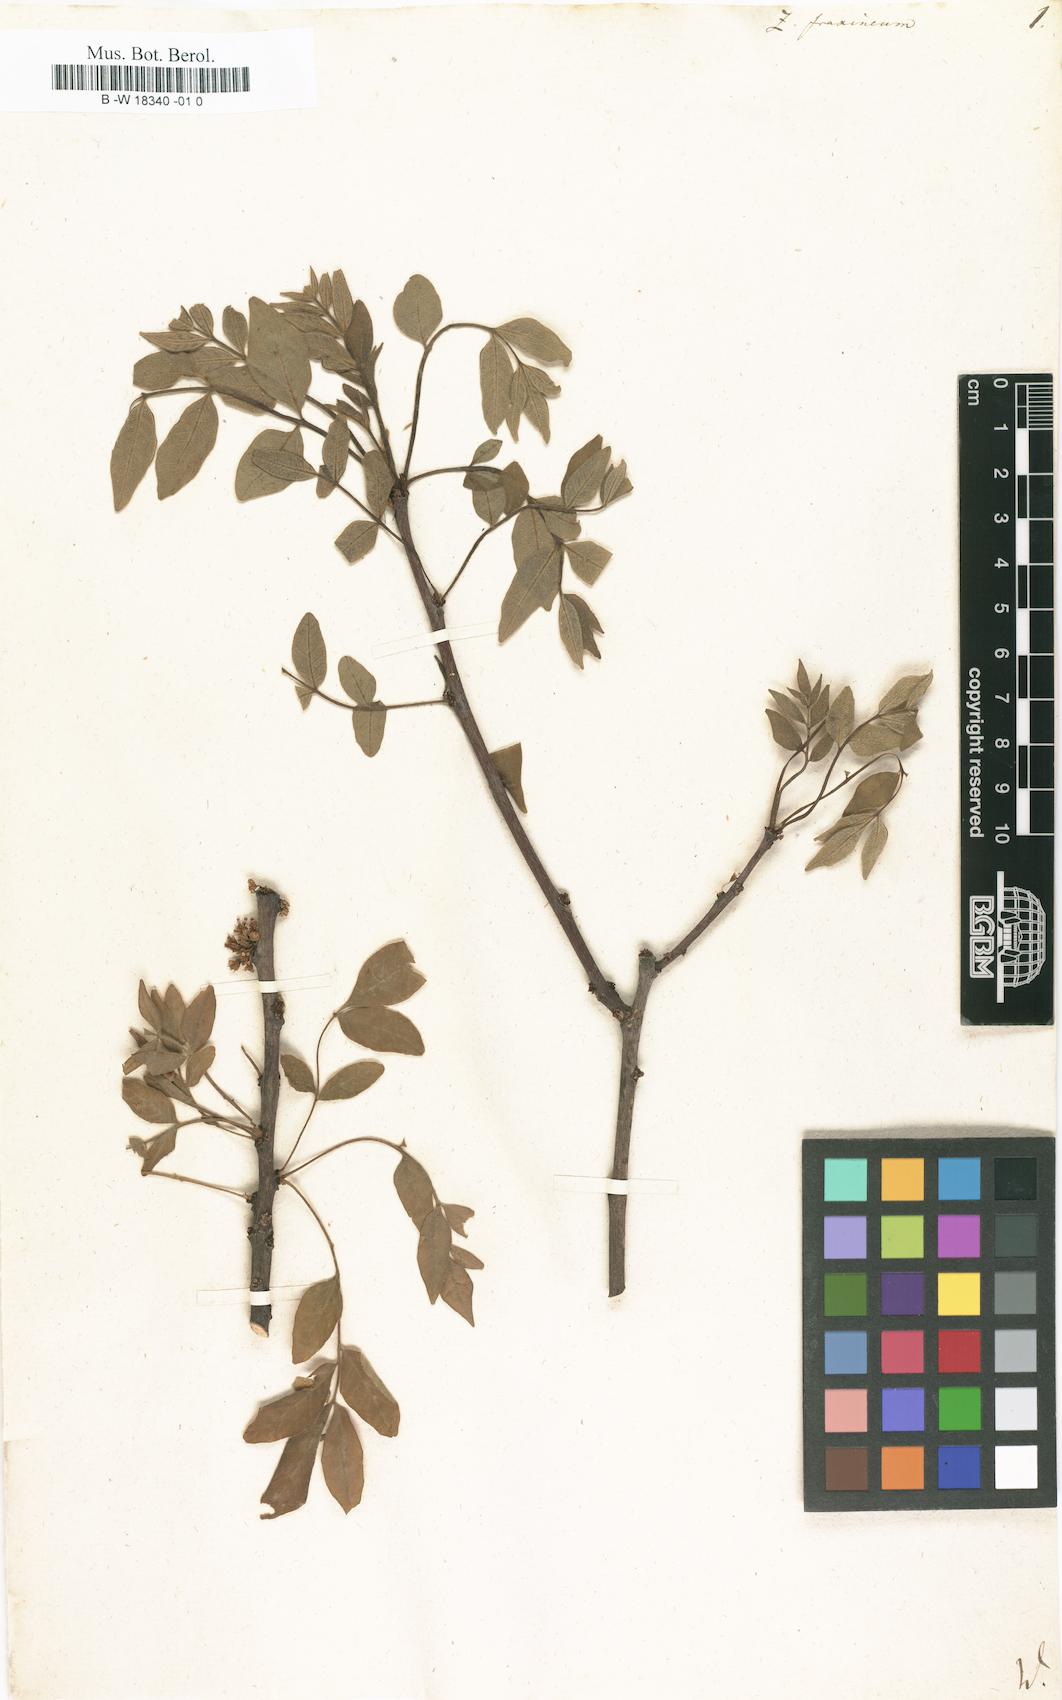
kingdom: Plantae
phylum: Tracheophyta
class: Magnoliopsida
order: Sapindales
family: Rutaceae
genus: Zanthoxylum
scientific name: Zanthoxylum americanum
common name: Northern prickly-ash
